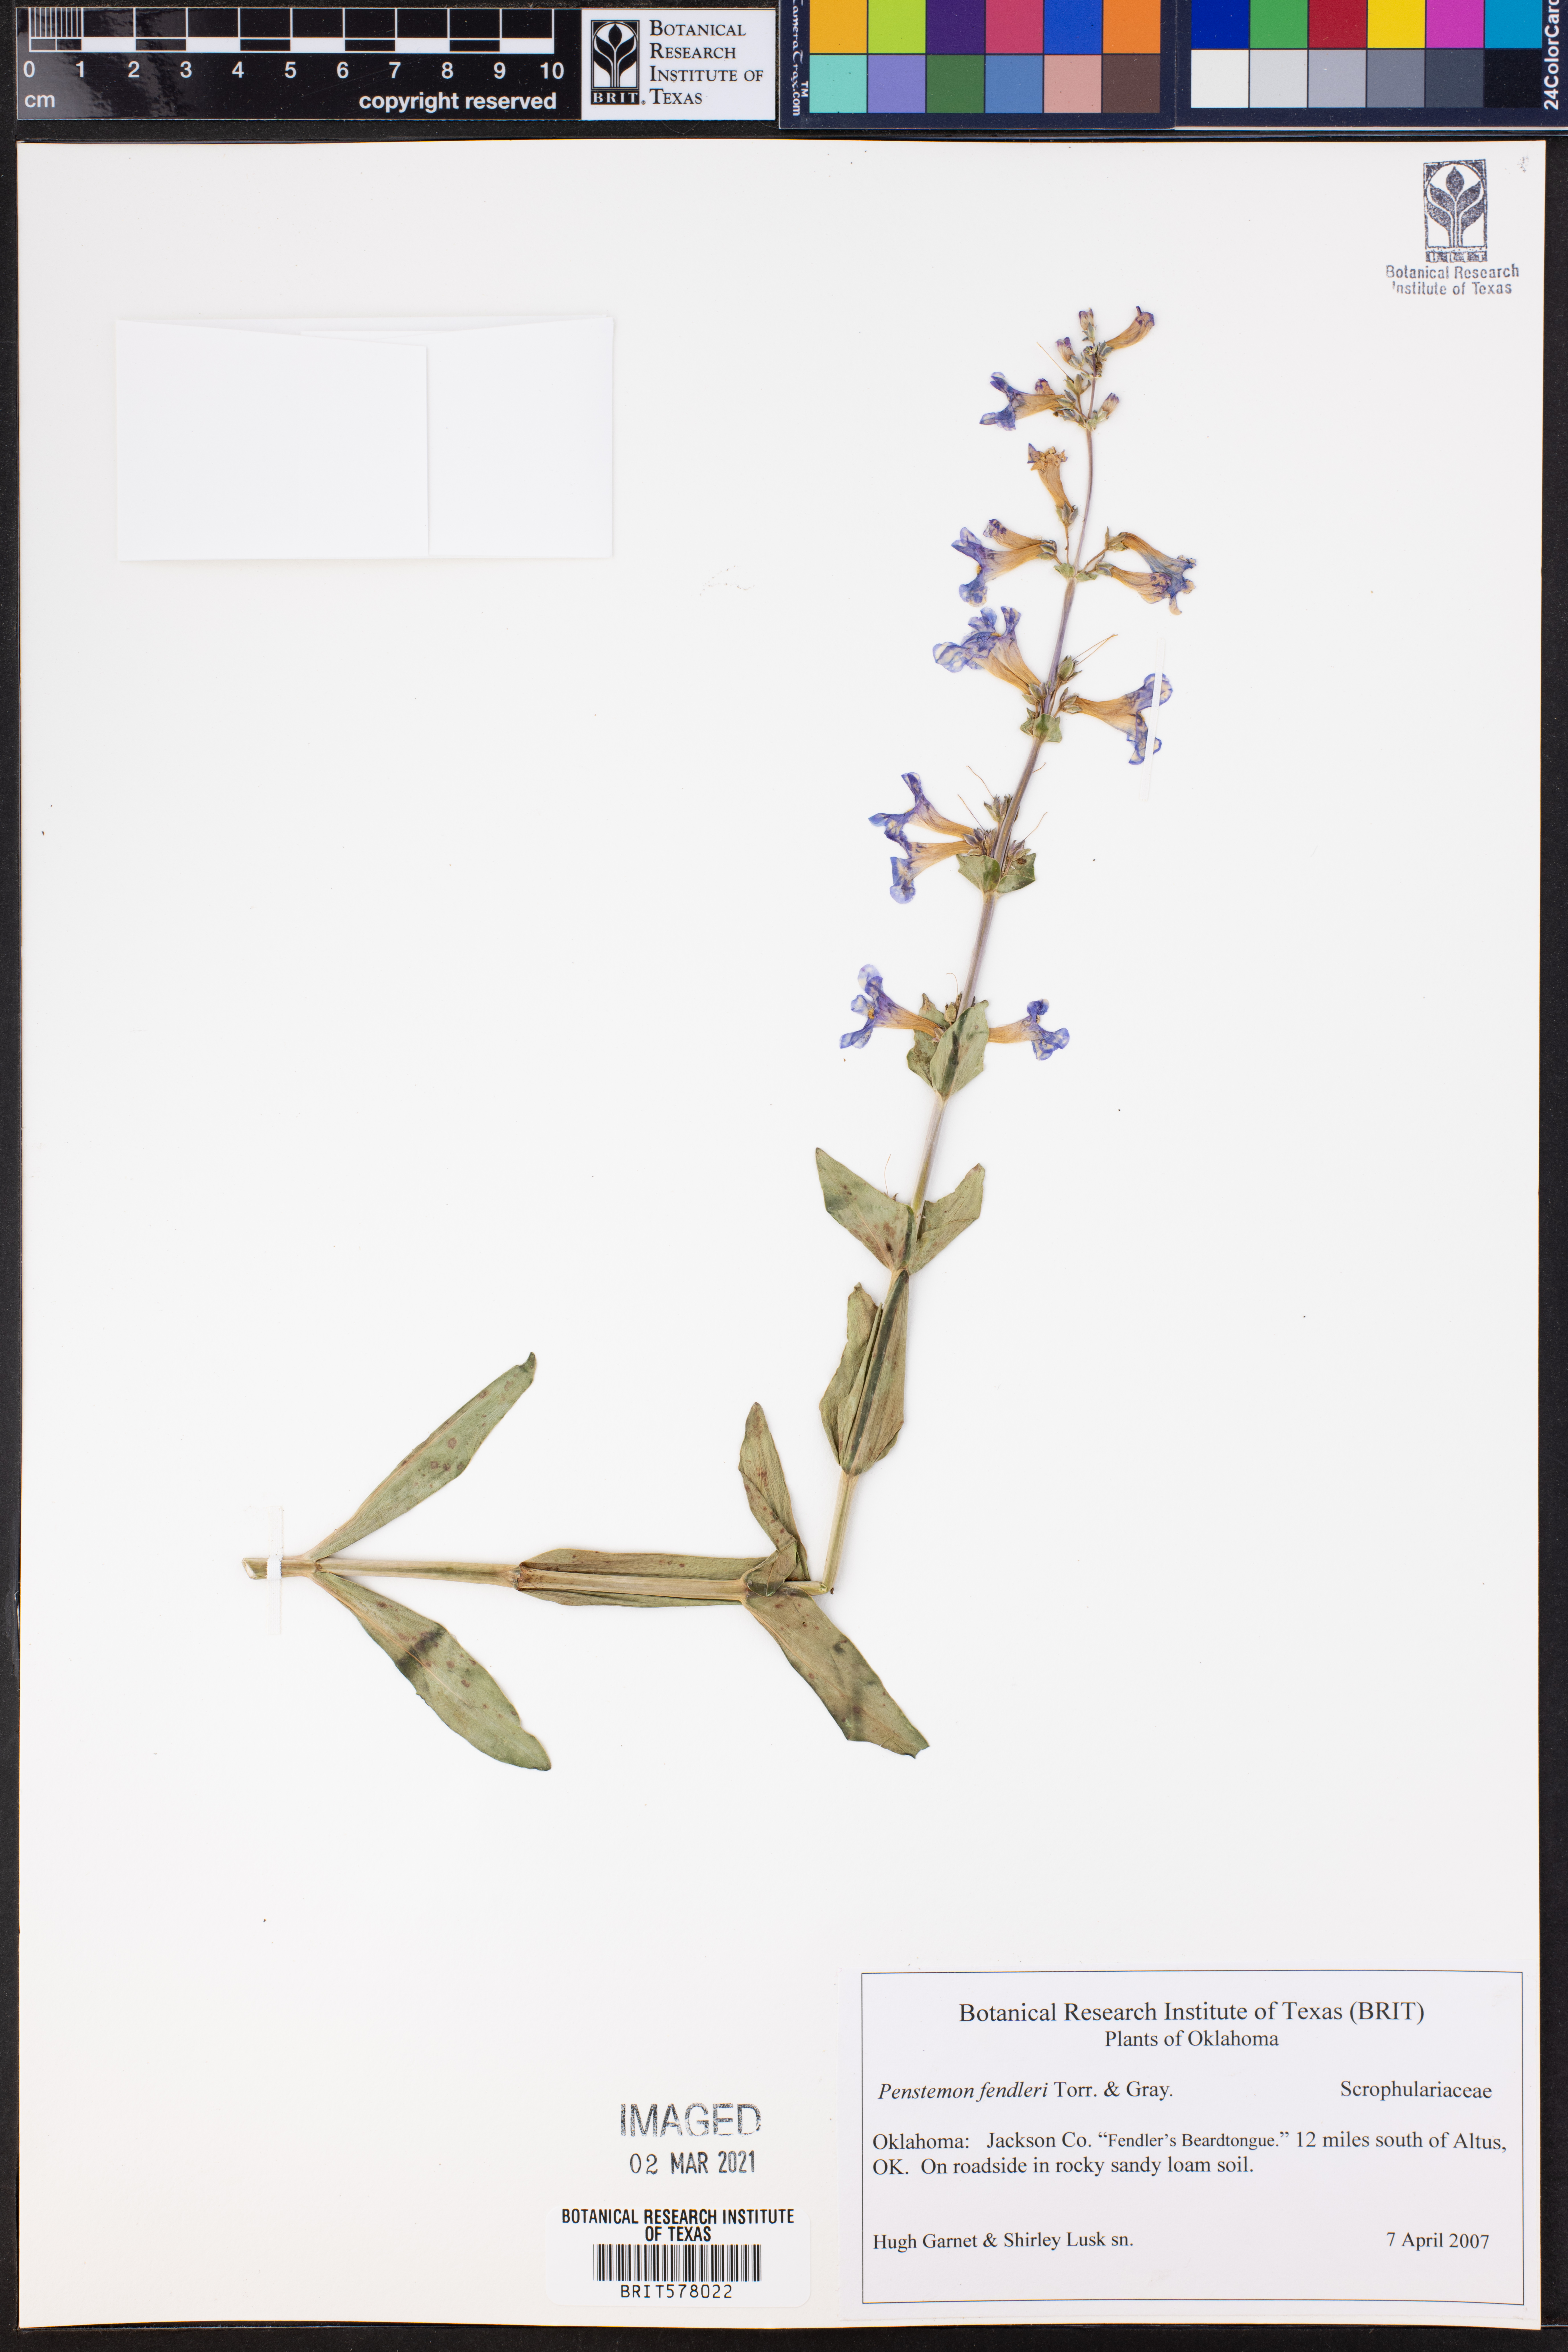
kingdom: Plantae
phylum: Tracheophyta
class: Magnoliopsida
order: Lamiales
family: Plantaginaceae
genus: Penstemon
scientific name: Penstemon fendleri
